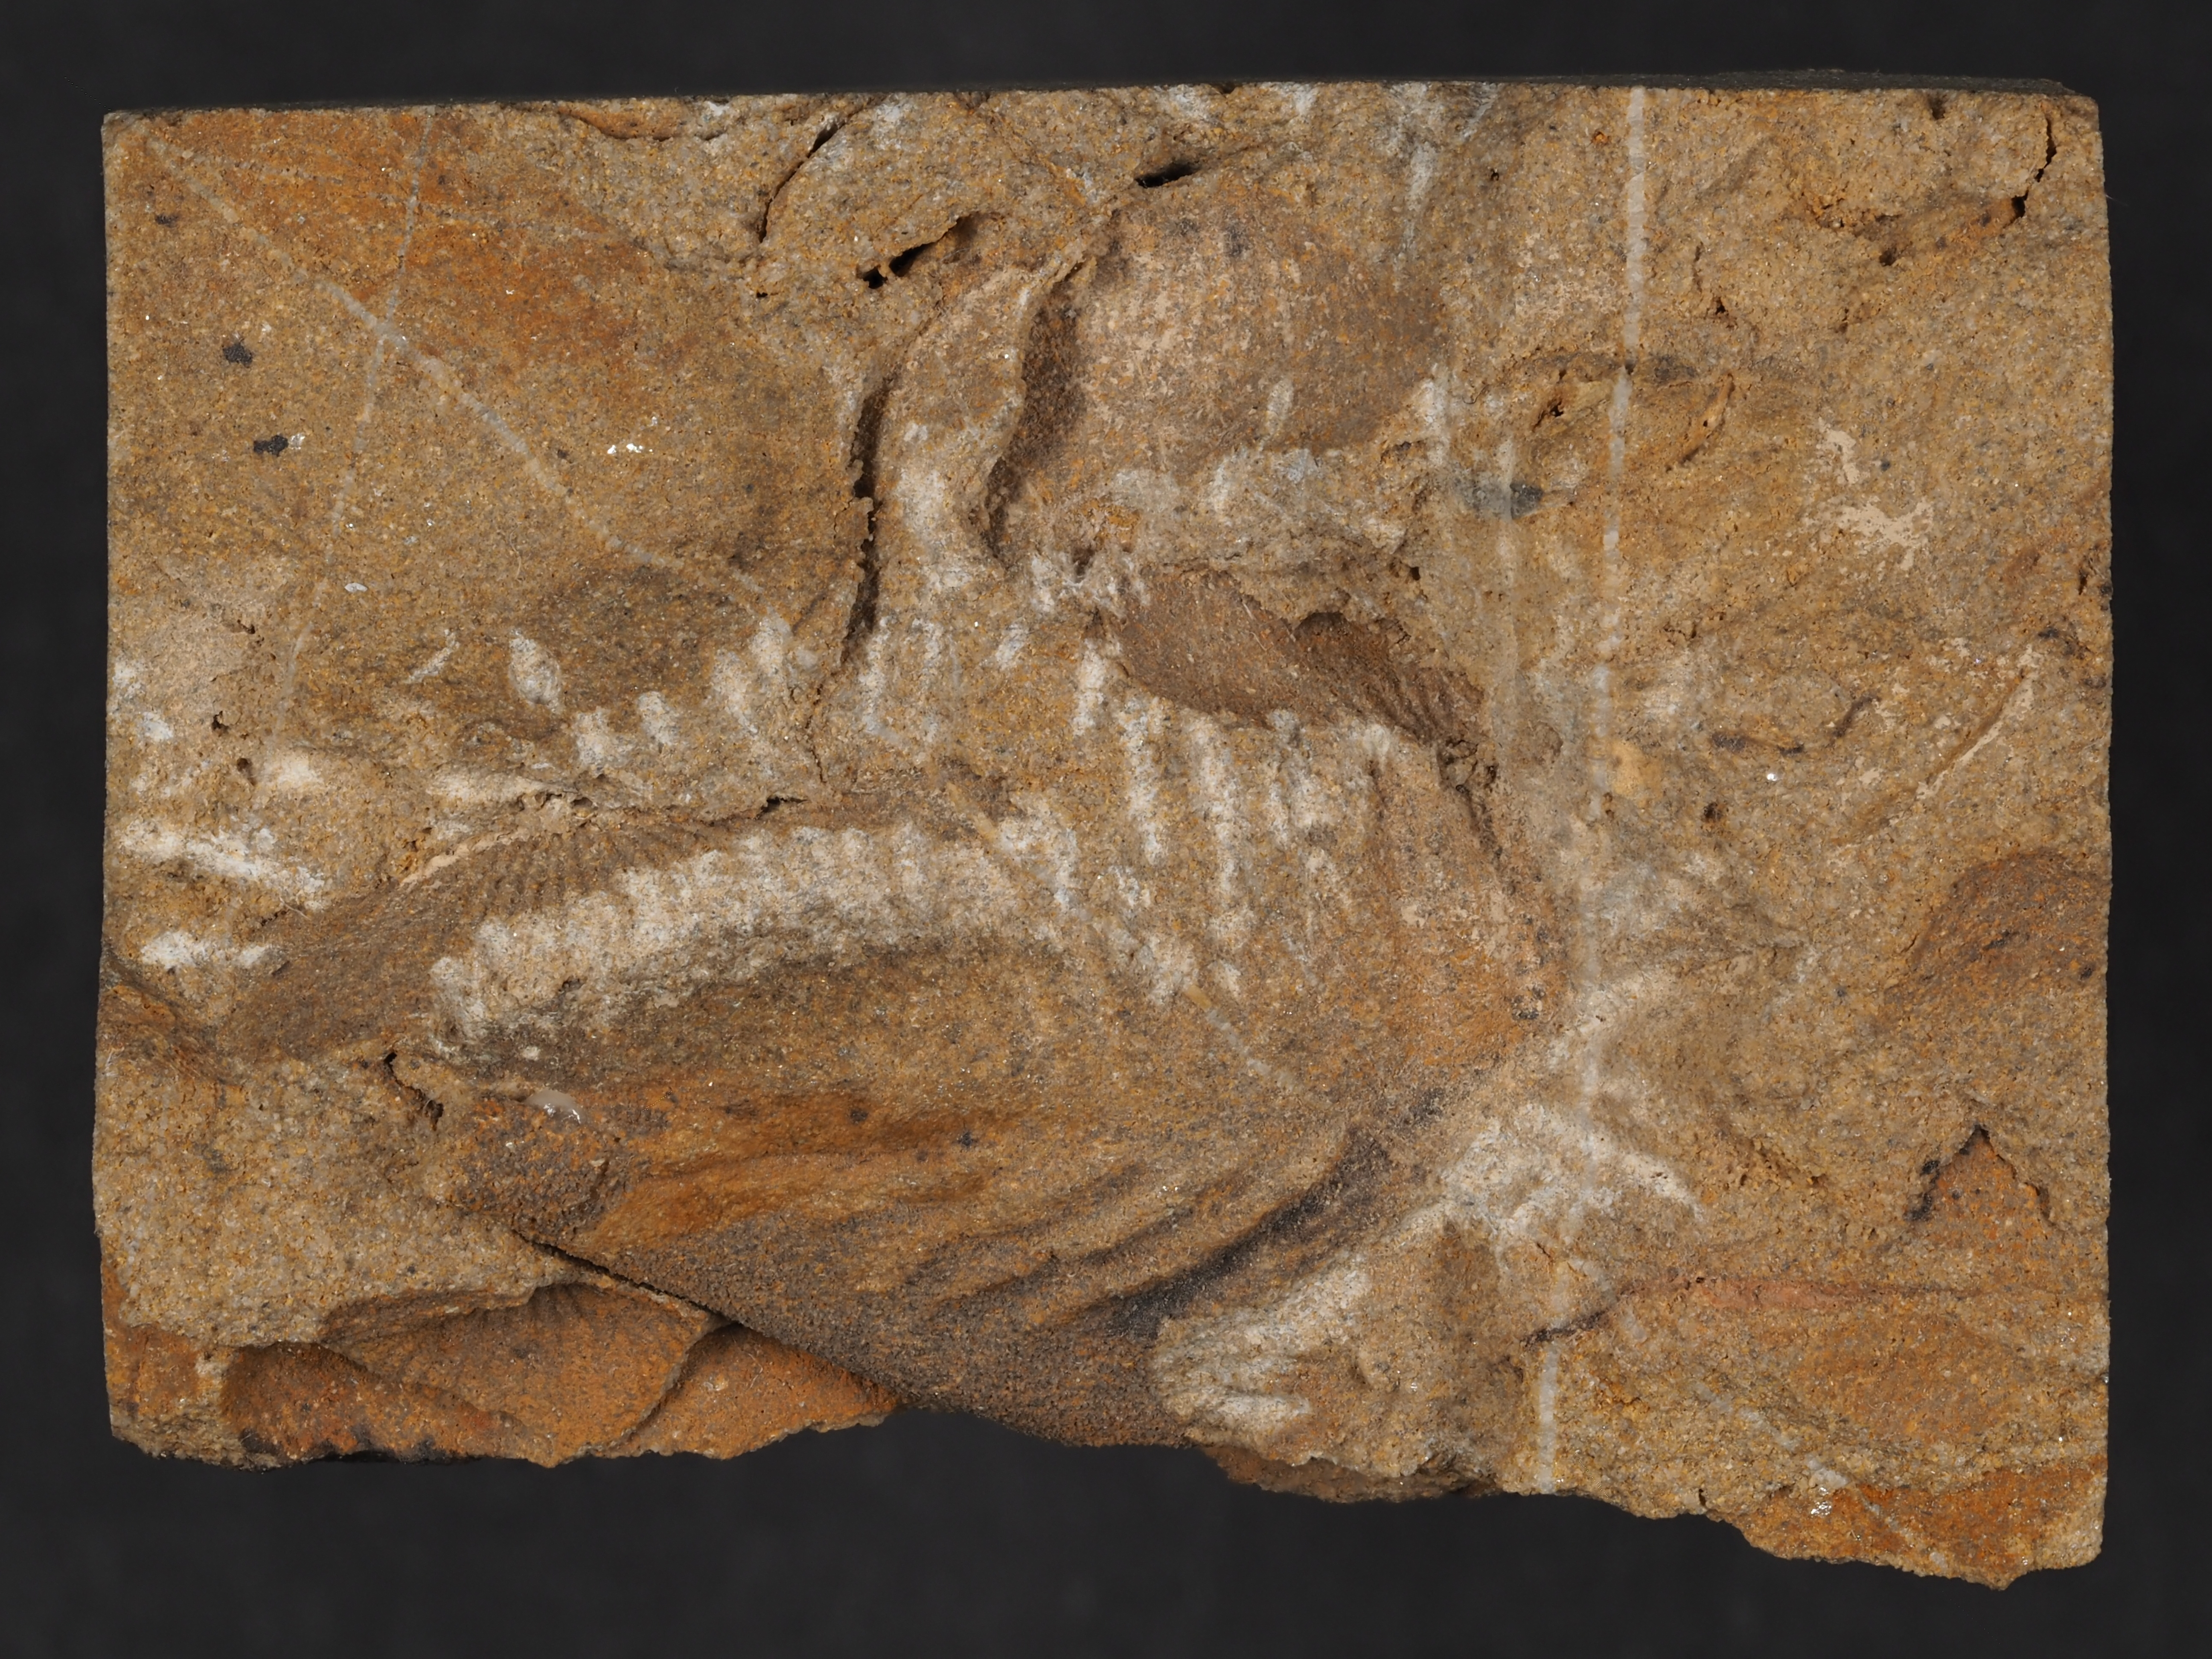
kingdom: Animalia
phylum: Arthropoda
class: Trilobita
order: Phacopida
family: Homalonotidae
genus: Digonus
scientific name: Digonus
